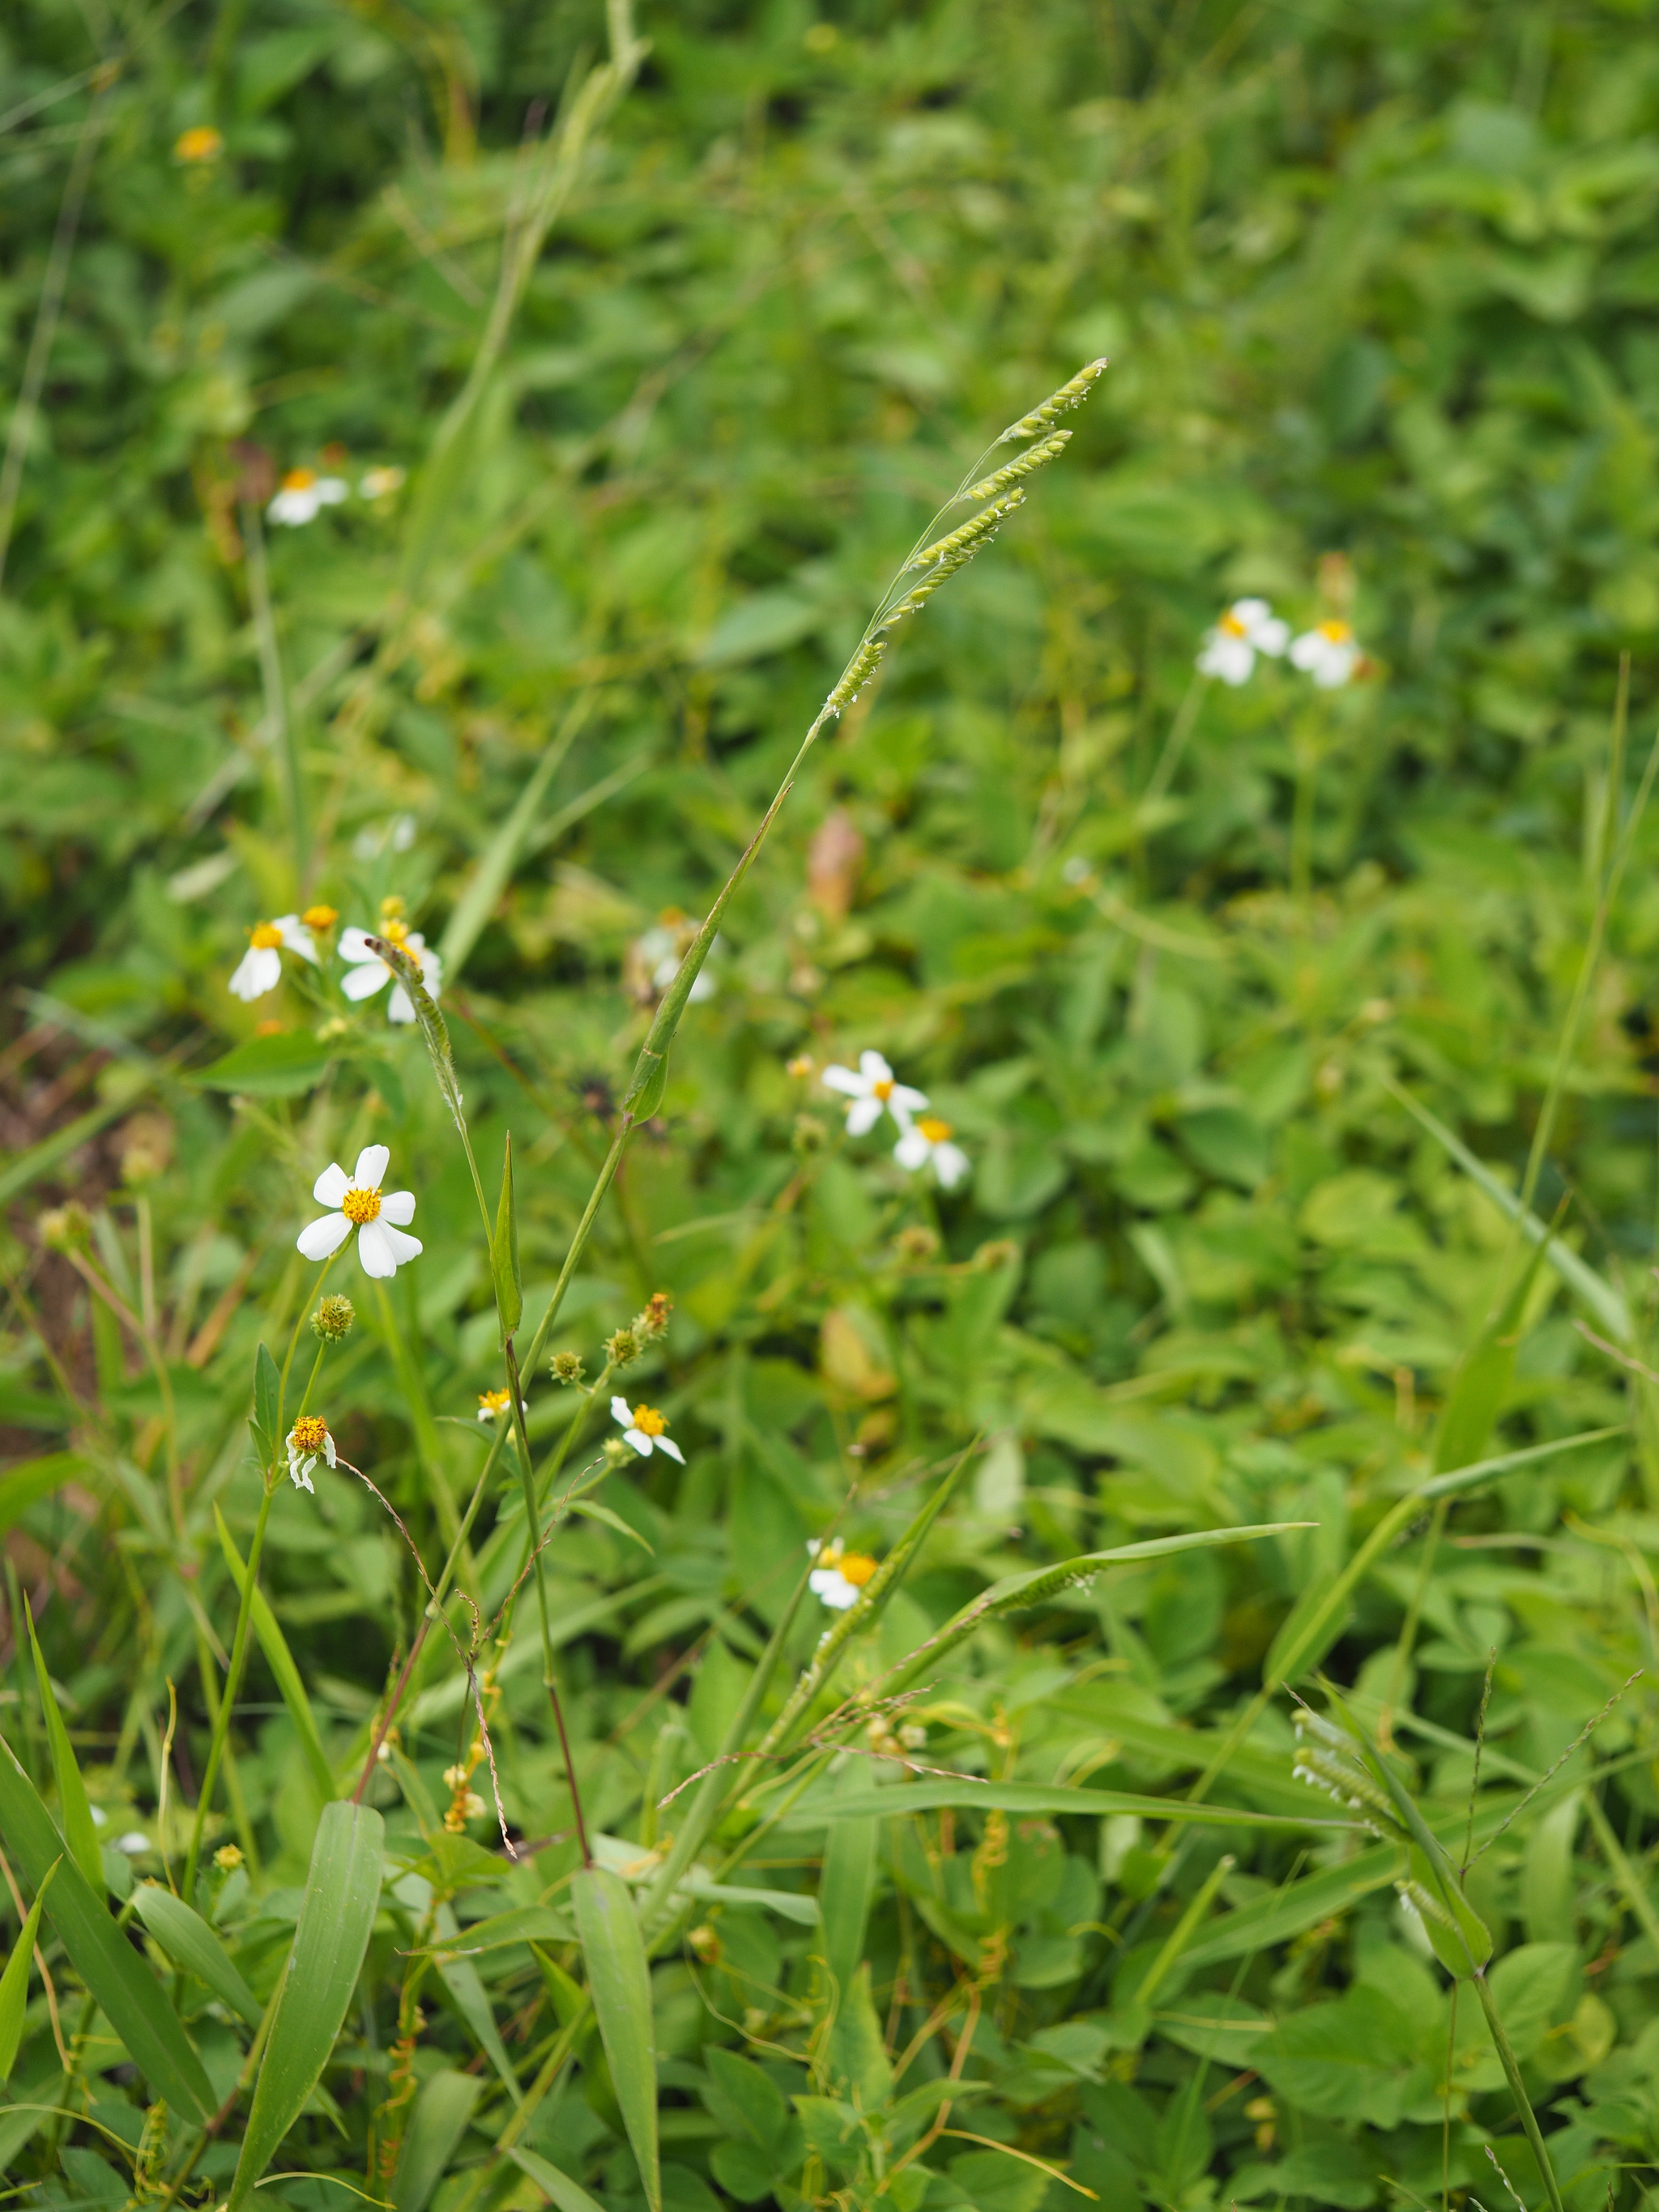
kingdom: Plantae
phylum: Tracheophyta
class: Liliopsida
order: Poales
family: Poaceae
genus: Eriochloa
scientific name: Eriochloa villosa
